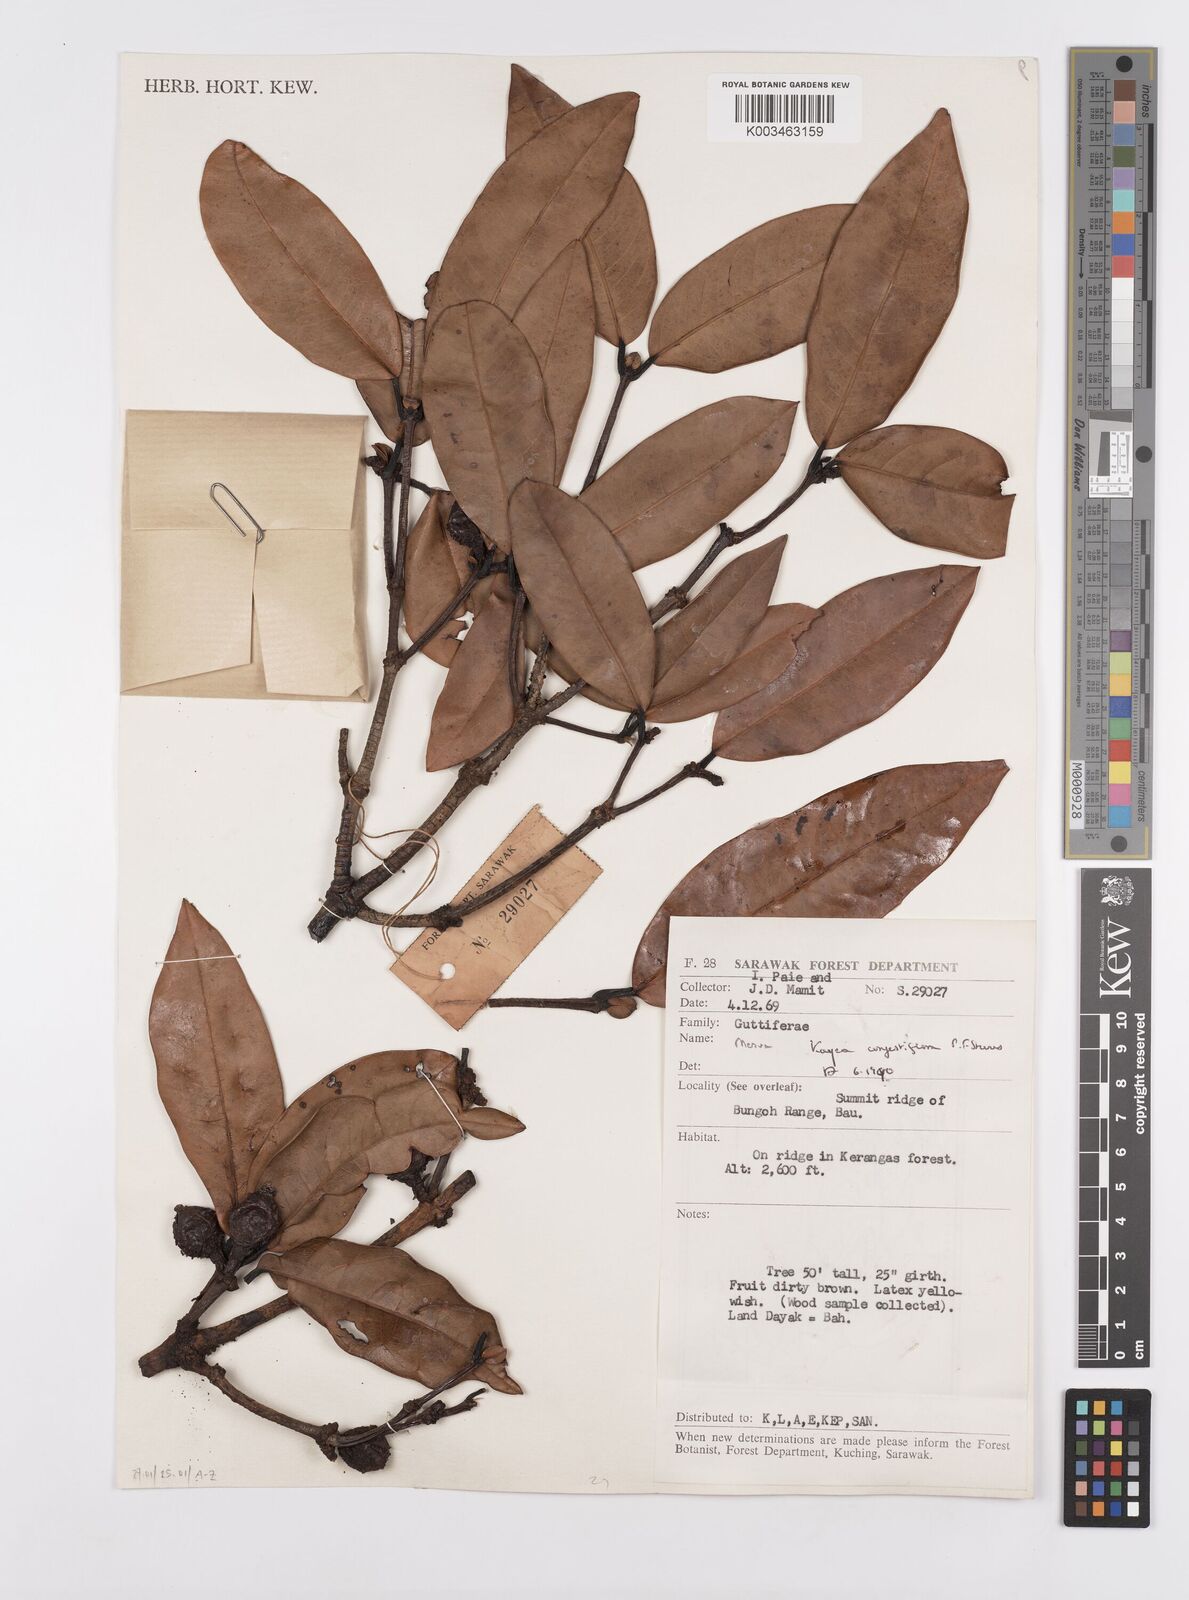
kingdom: Plantae
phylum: Tracheophyta
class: Magnoliopsida
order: Malpighiales
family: Calophyllaceae
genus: Kayea
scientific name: Kayea
